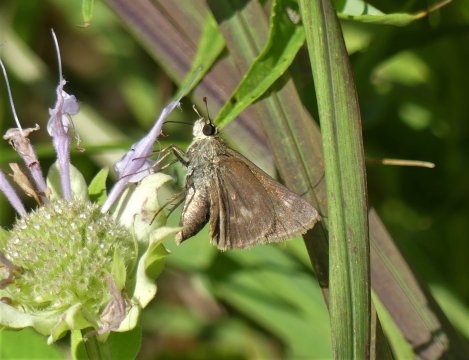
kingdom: Animalia
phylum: Arthropoda
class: Insecta
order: Lepidoptera
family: Hesperiidae
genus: Polites
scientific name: Polites egeremet
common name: Northern Broken-Dash
